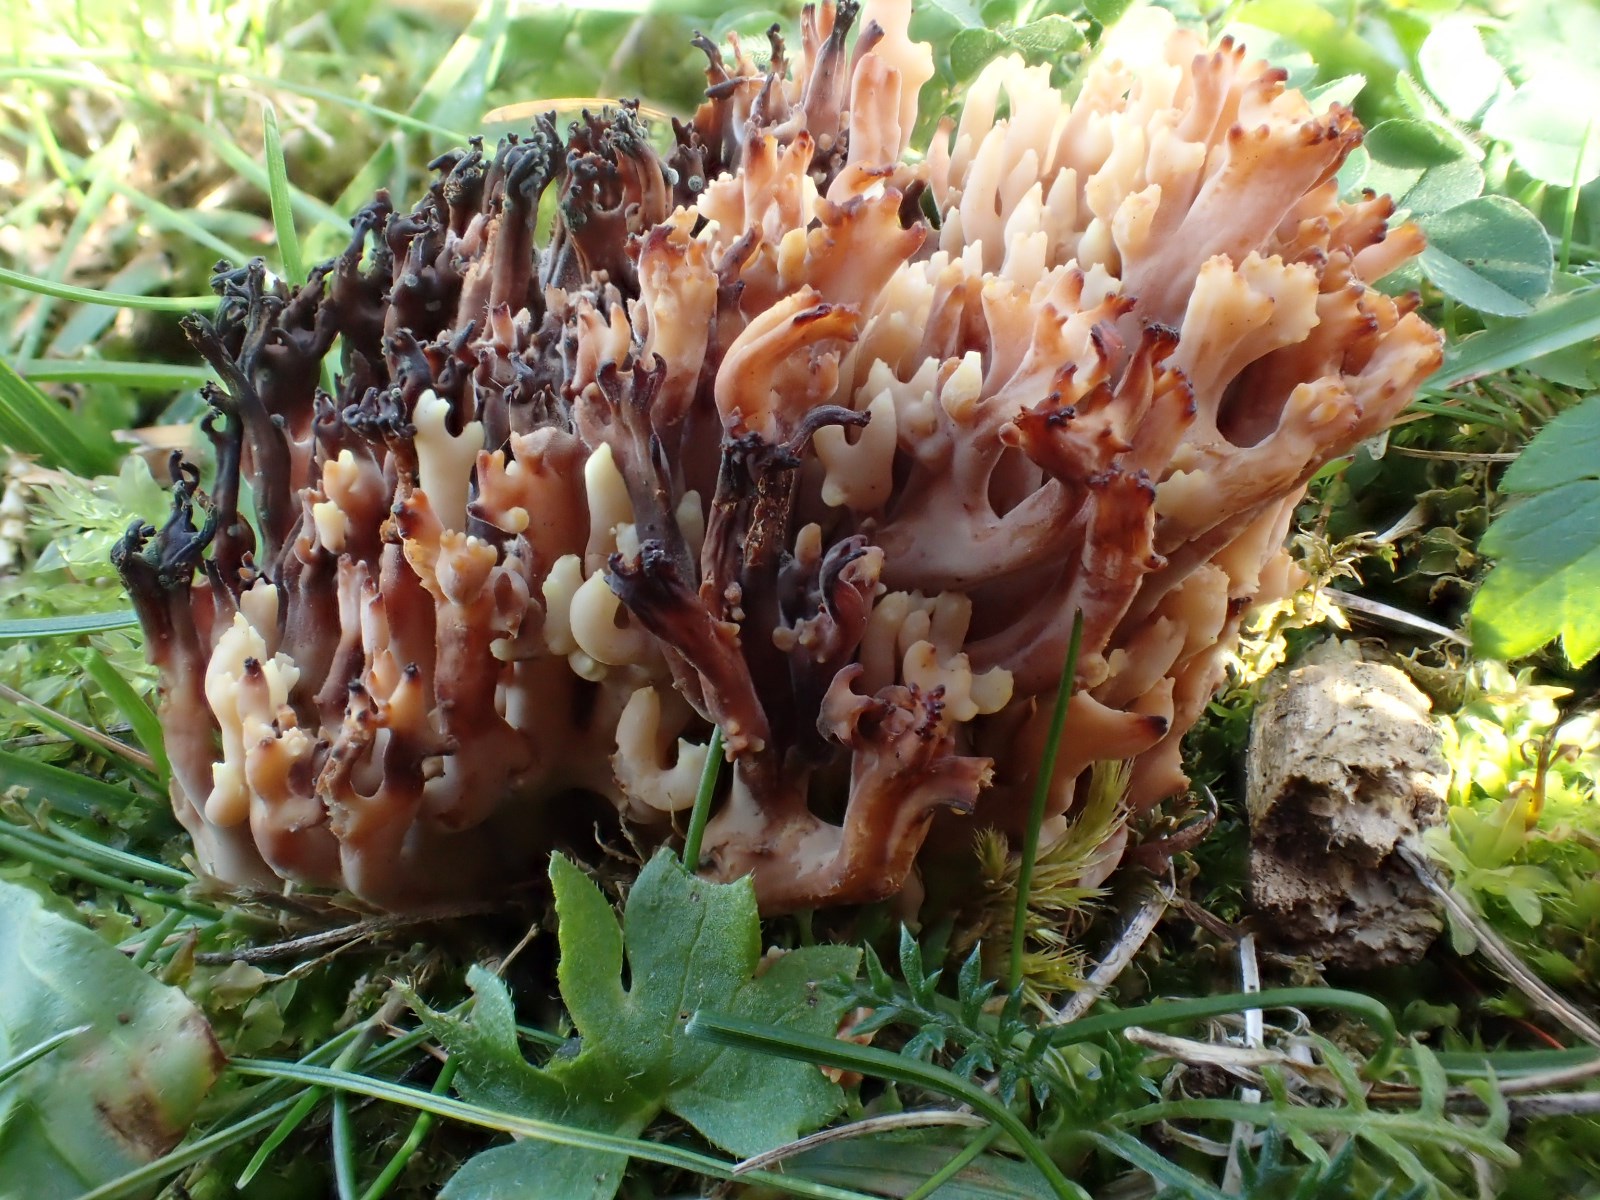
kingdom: Fungi
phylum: Basidiomycota
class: Agaricomycetes
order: Gomphales
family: Gomphaceae
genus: Ramaria
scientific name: Ramaria gracilis
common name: anis-koralsvamp
